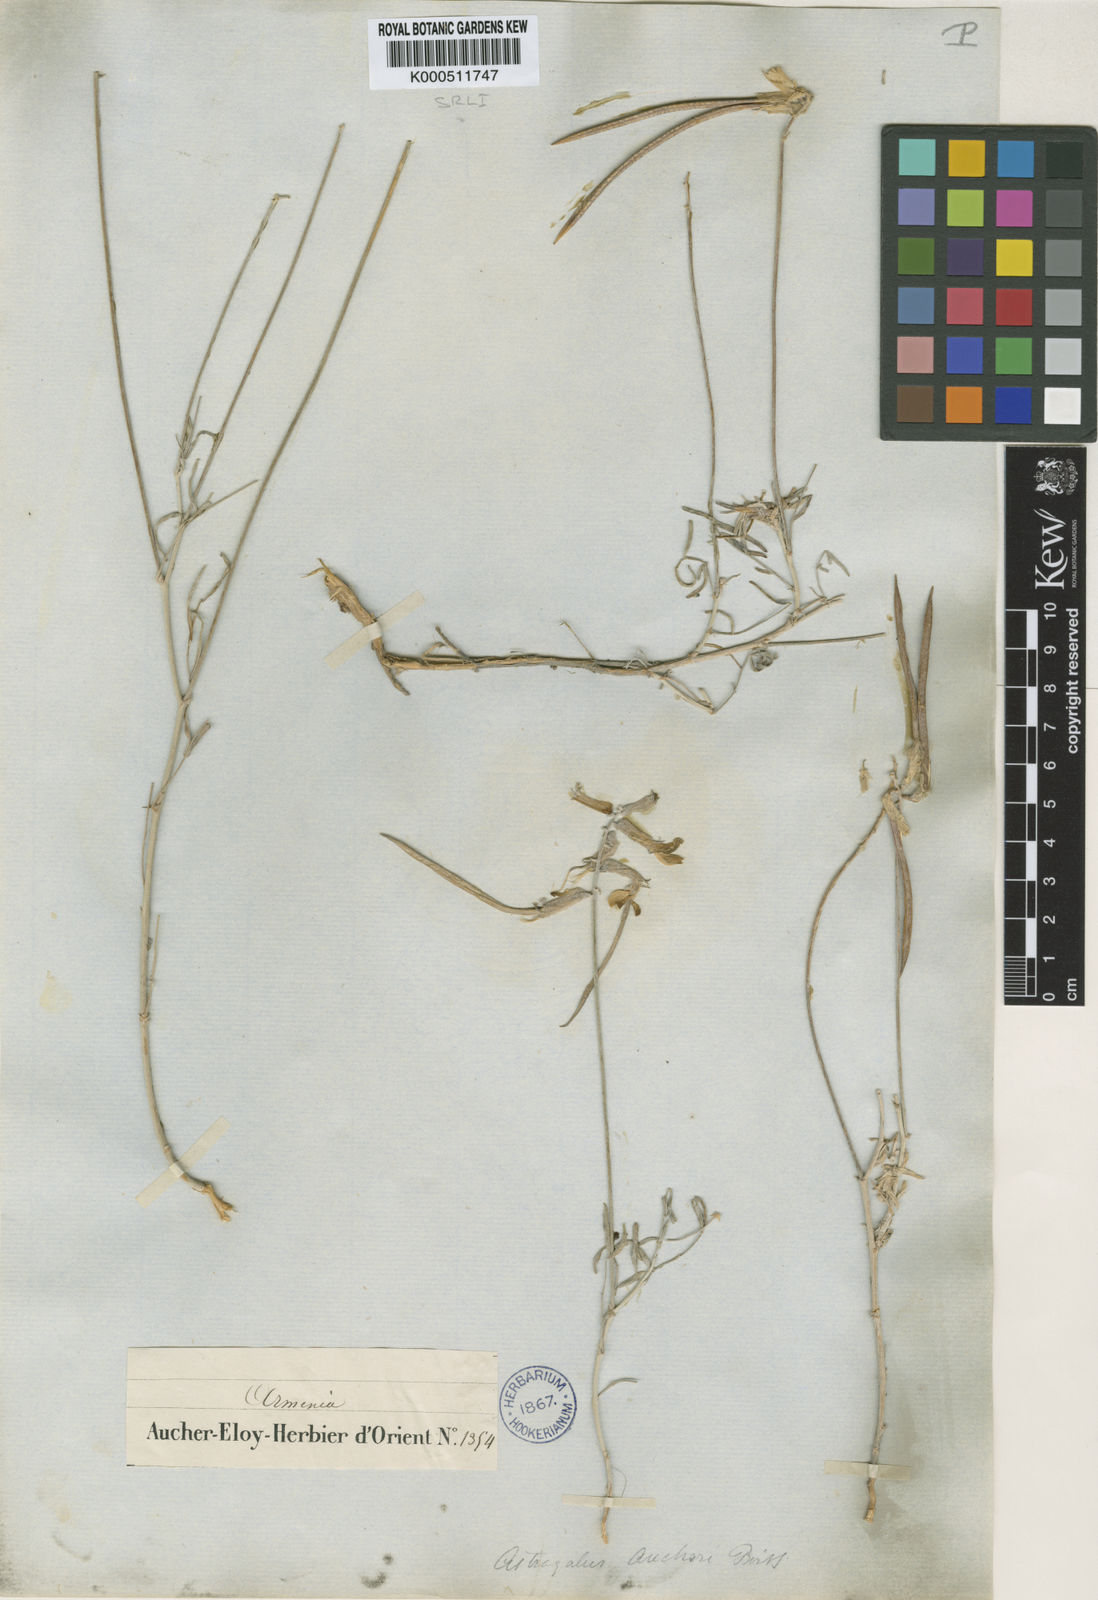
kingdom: Plantae
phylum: Tracheophyta
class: Magnoliopsida
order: Fabales
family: Fabaceae
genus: Astragalus
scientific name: Astragalus
